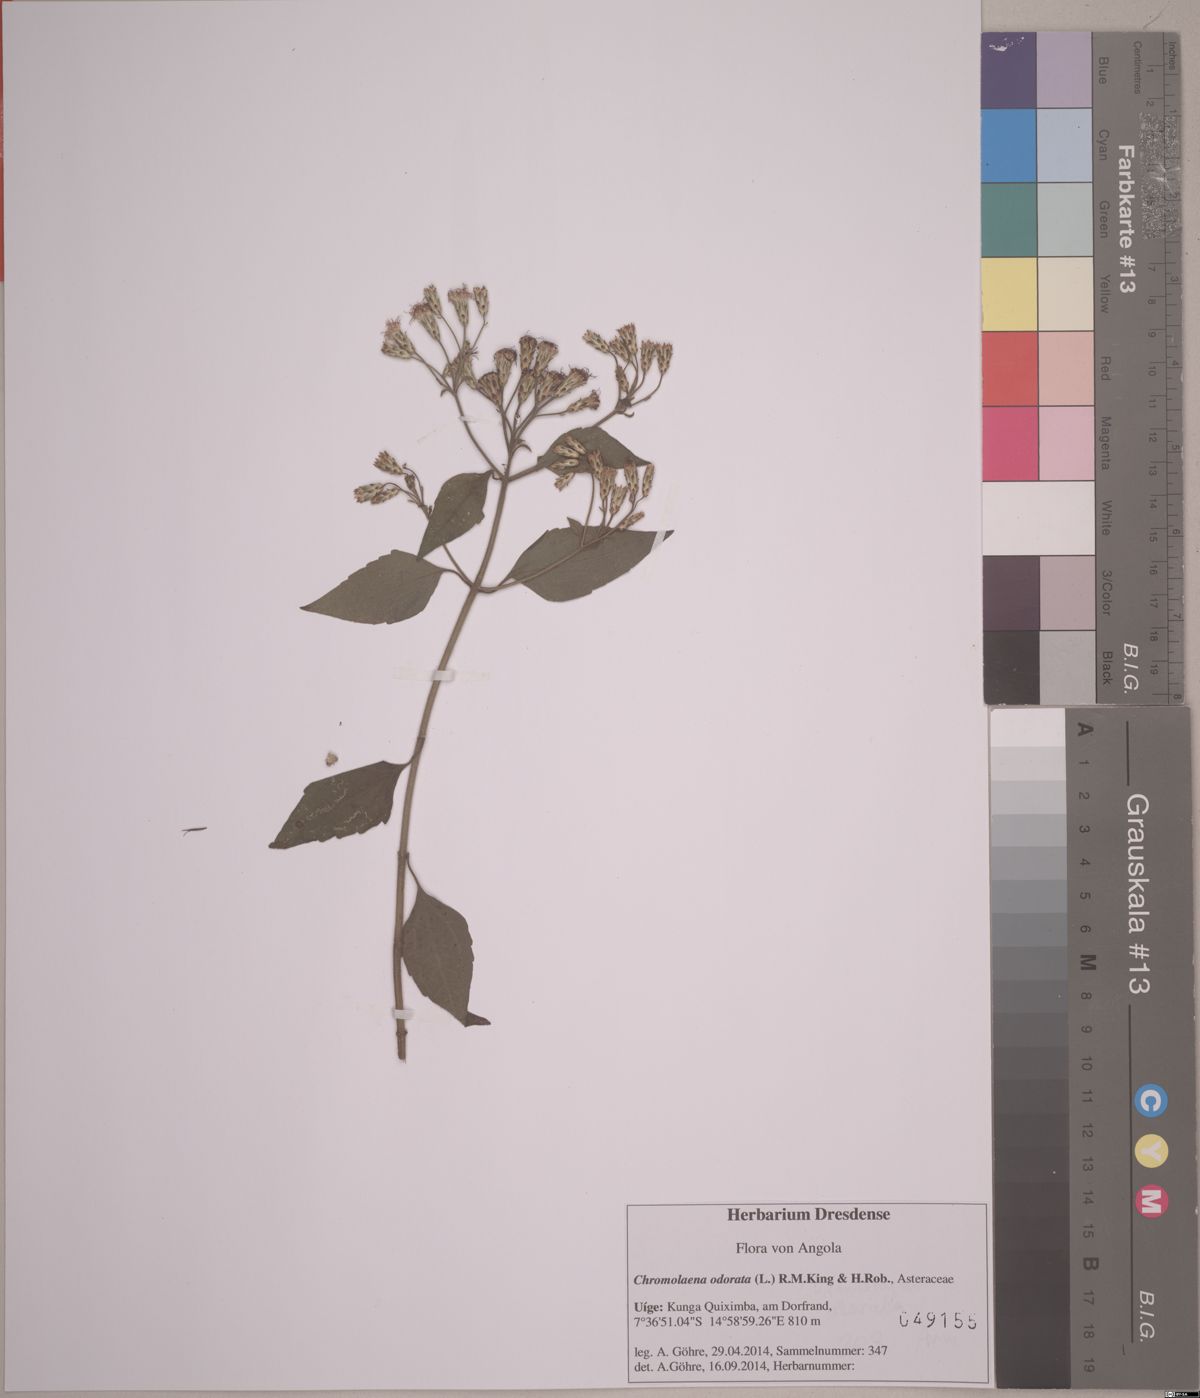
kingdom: Plantae
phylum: Tracheophyta
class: Magnoliopsida
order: Asterales
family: Asteraceae
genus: Chromolaena
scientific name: Chromolaena odorata
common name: Siamweed
